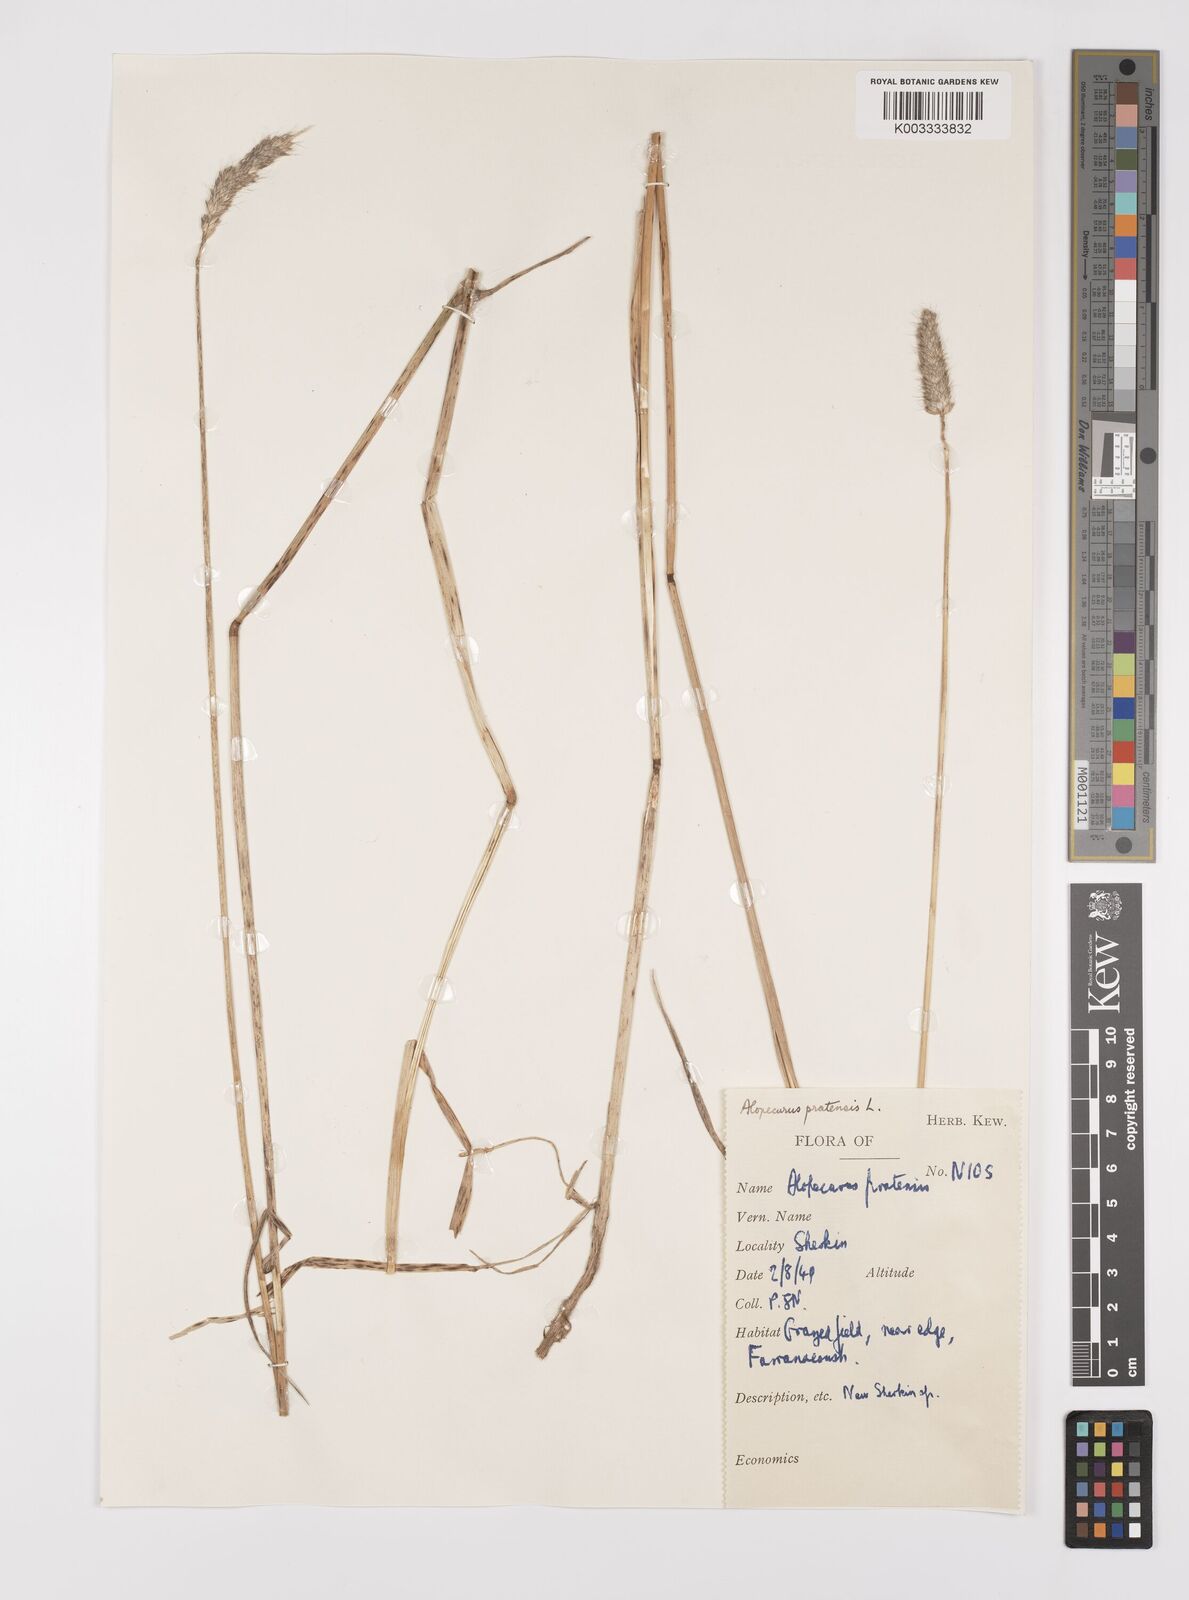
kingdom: Plantae
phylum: Tracheophyta
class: Liliopsida
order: Poales
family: Poaceae
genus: Alopecurus
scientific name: Alopecurus pratensis
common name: Meadow foxtail
